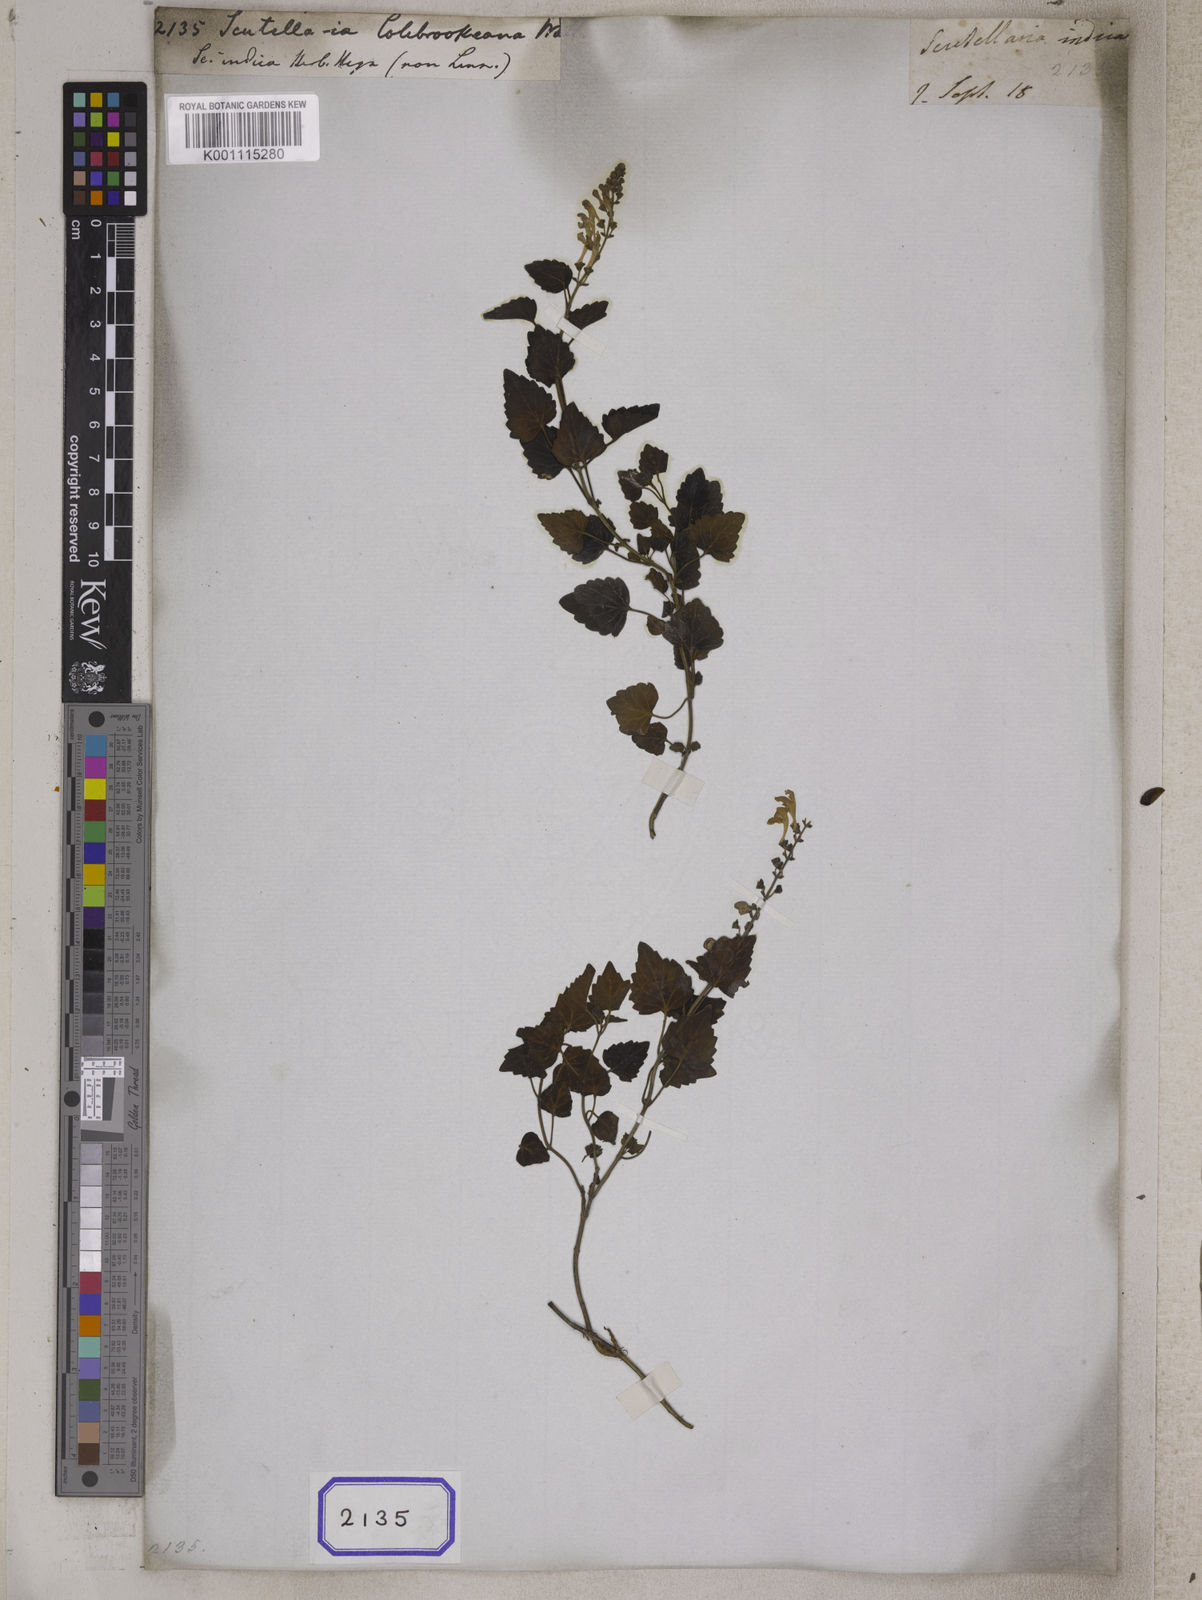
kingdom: Plantae
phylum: Tracheophyta
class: Magnoliopsida
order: Lamiales
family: Lamiaceae
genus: Scutellaria
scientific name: Scutellaria
